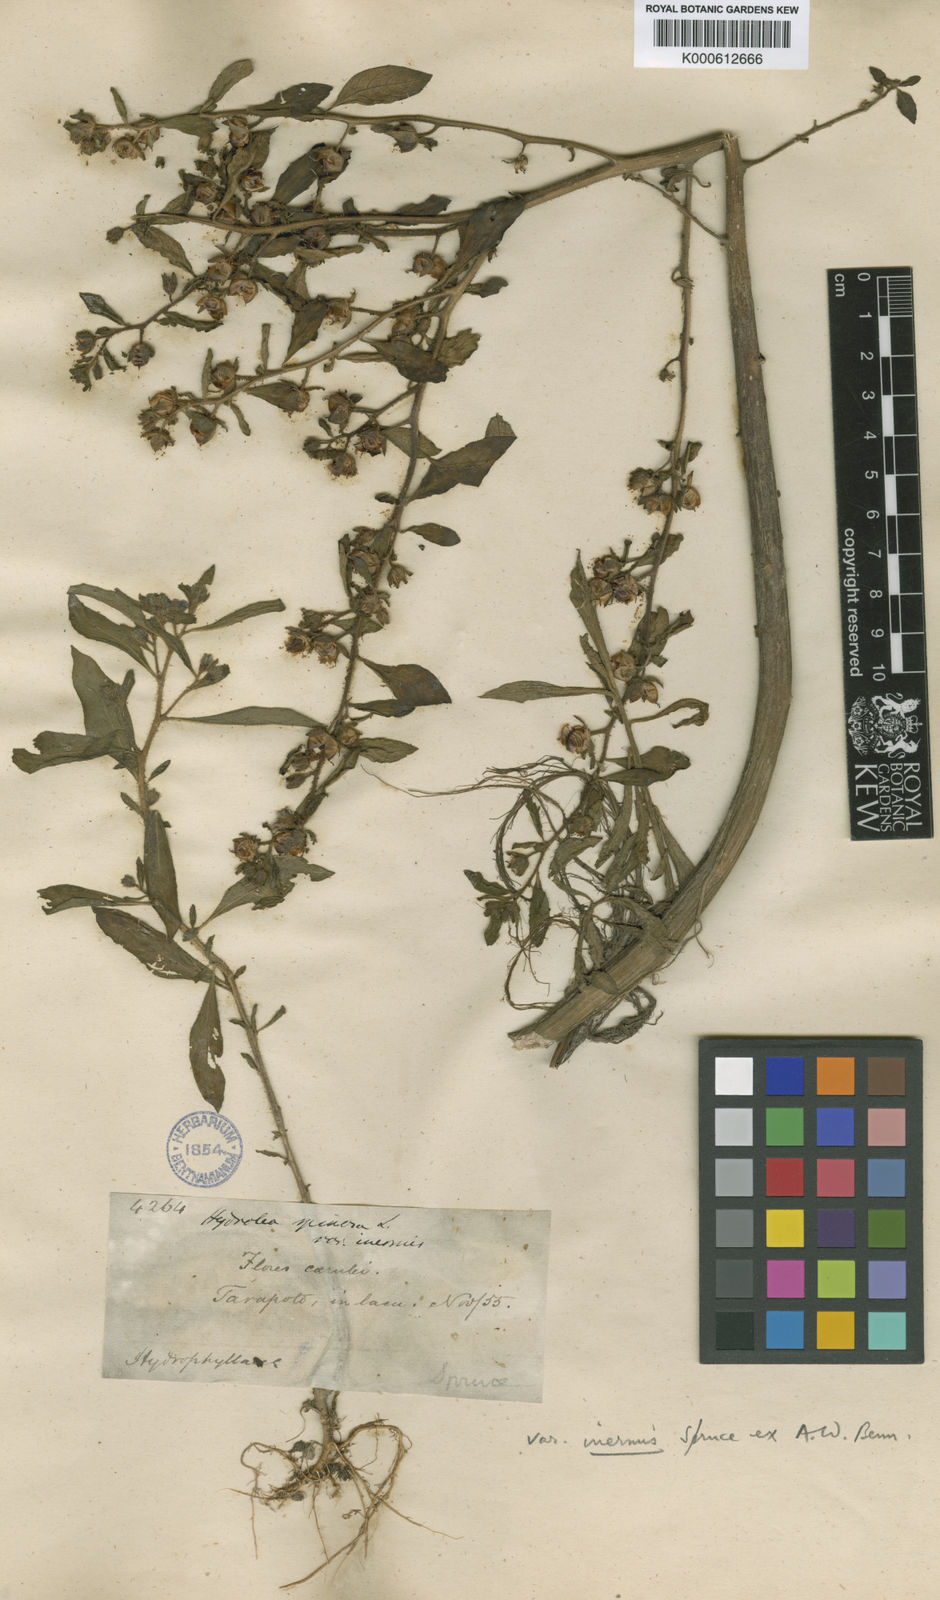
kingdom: Plantae
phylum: Tracheophyta
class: Magnoliopsida
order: Solanales
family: Hydroleaceae
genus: Hydrolea
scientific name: Hydrolea spinosa
